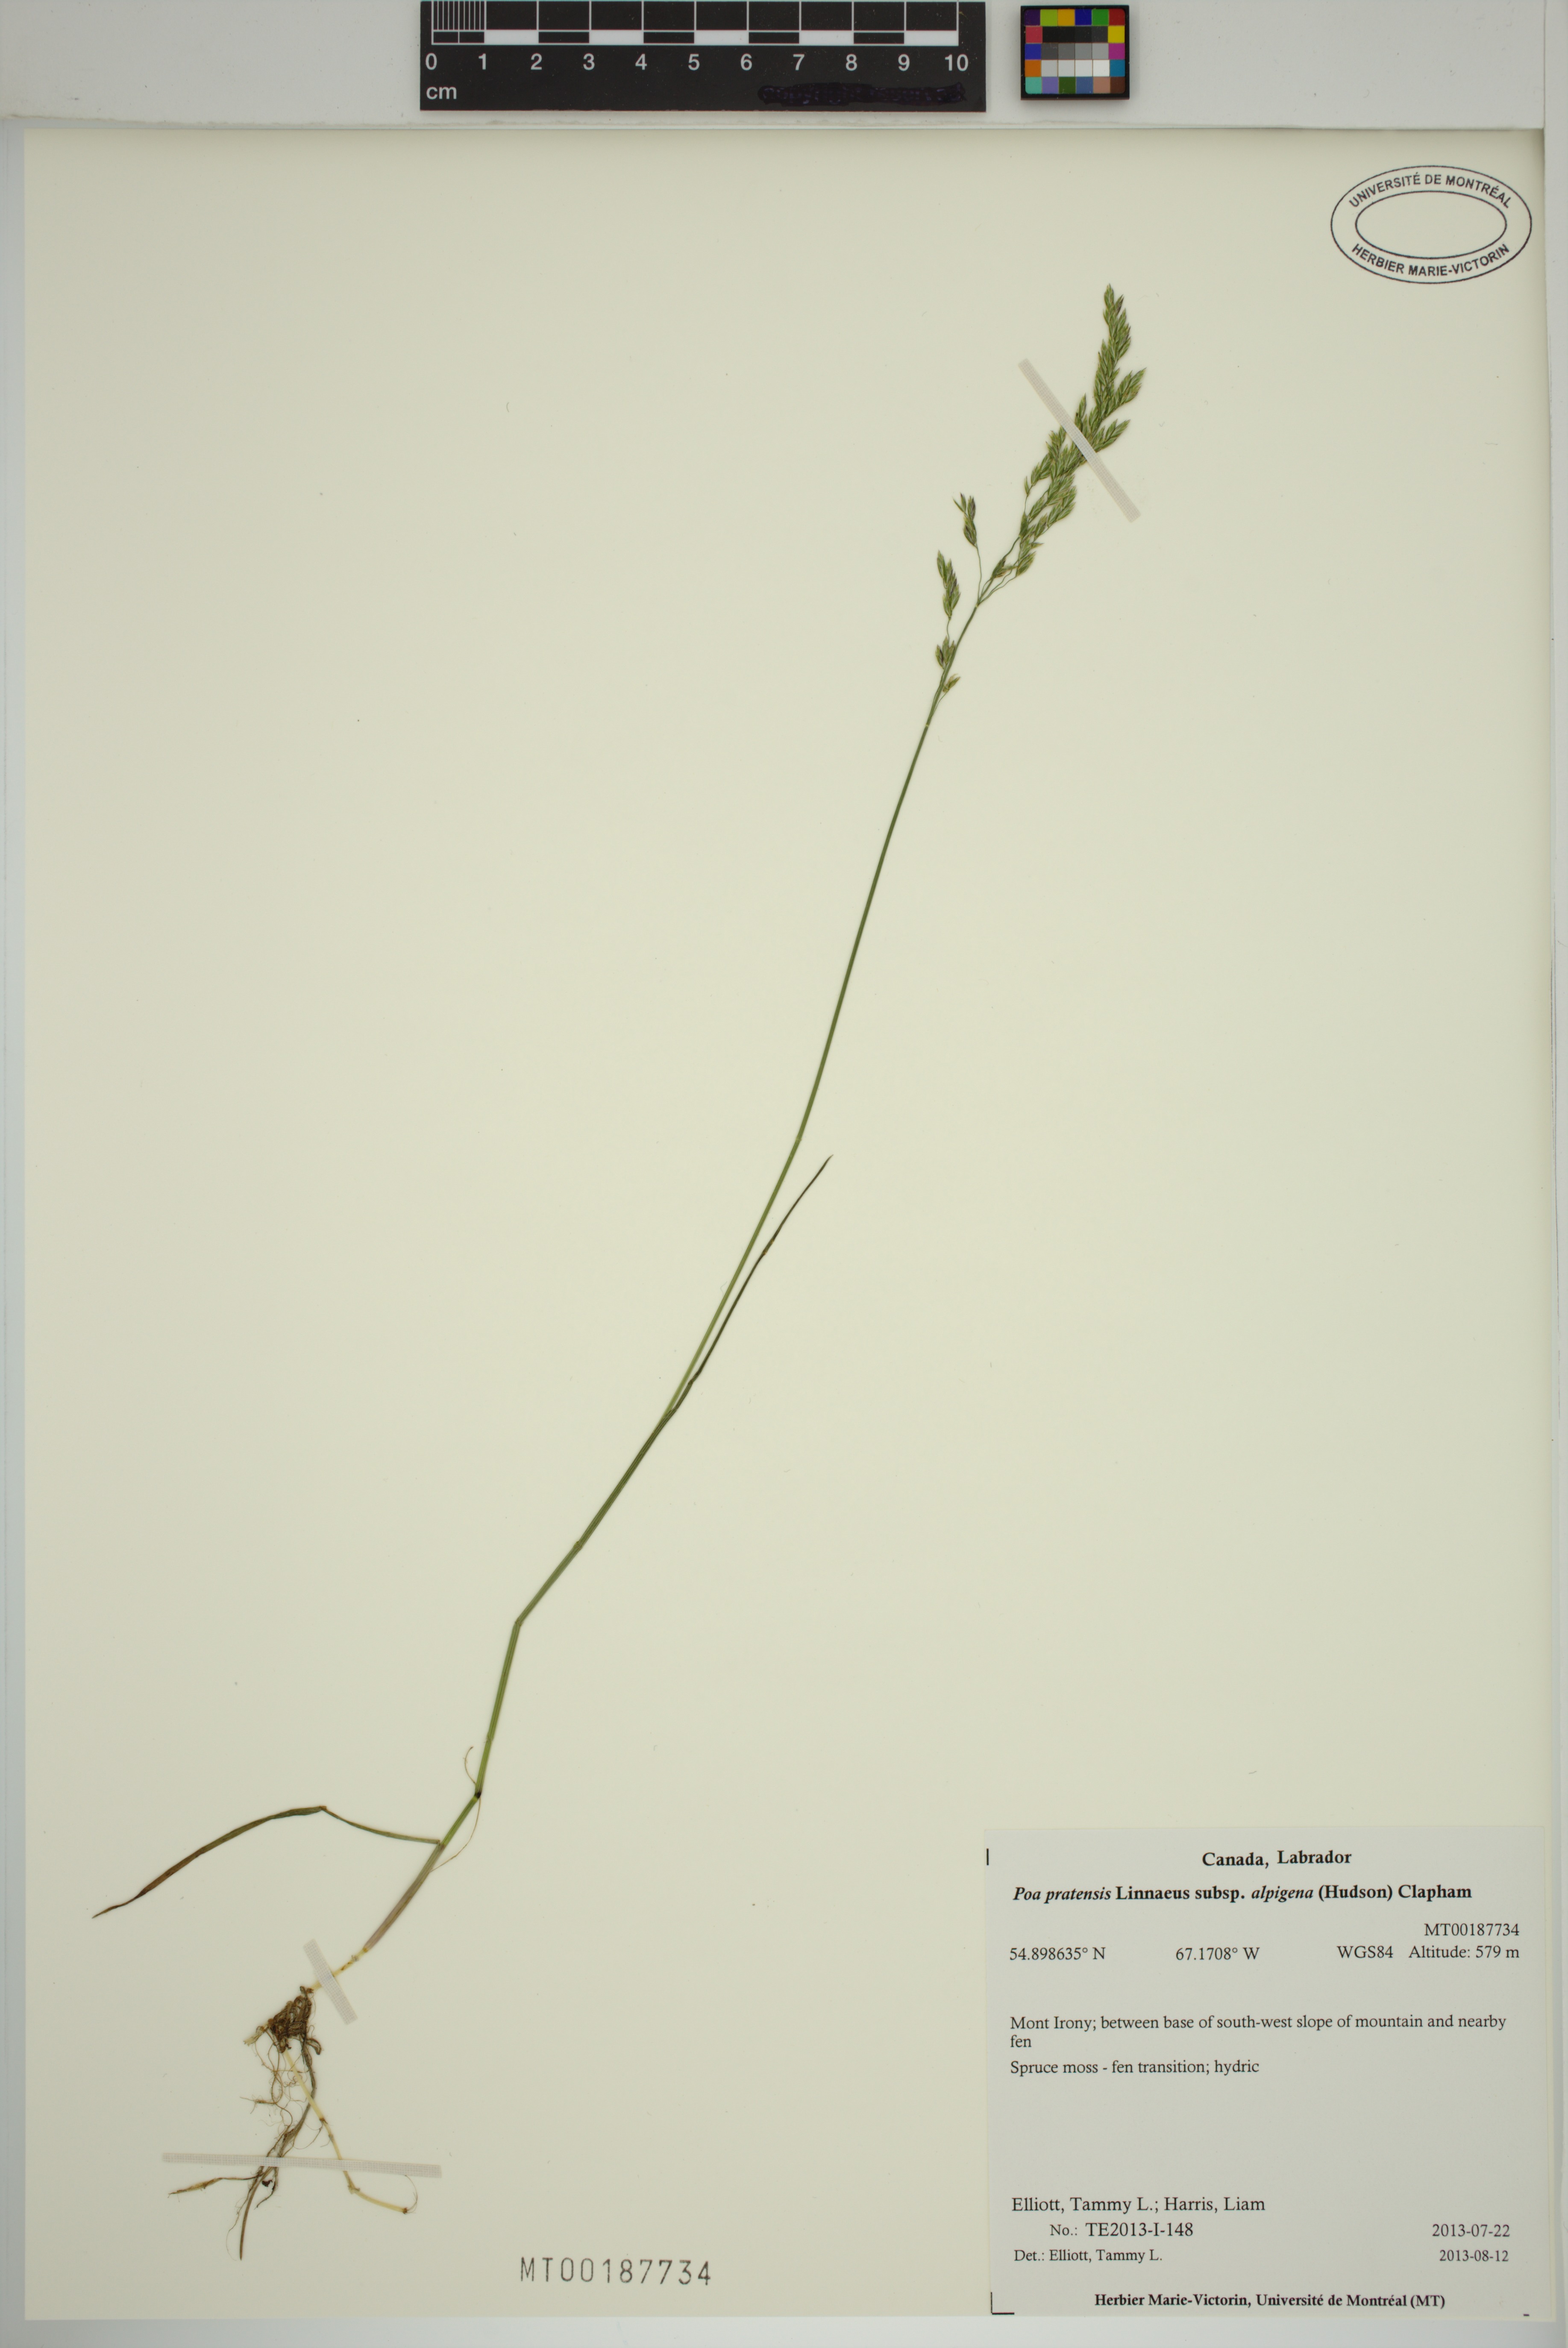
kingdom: Plantae
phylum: Tracheophyta
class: Liliopsida
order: Poales
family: Poaceae
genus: Poa
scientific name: Poa alpigena
